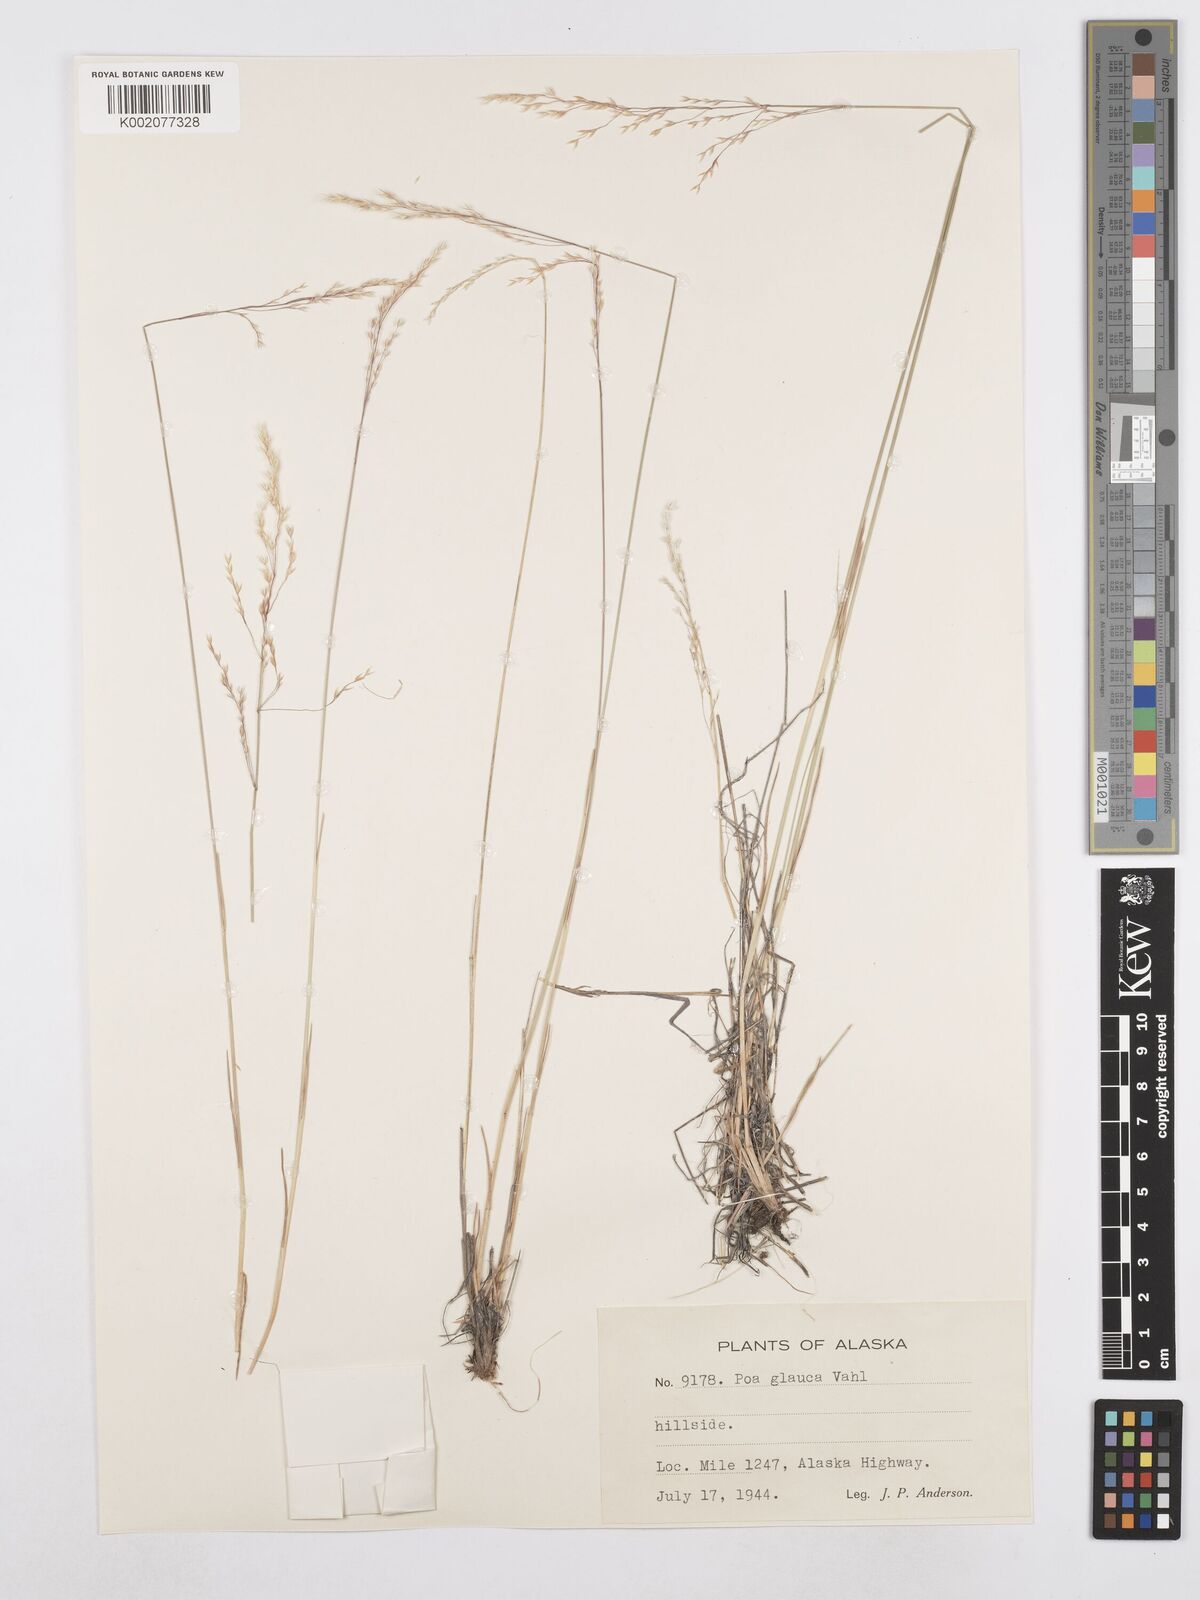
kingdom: Plantae
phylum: Tracheophyta
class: Liliopsida
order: Poales
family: Poaceae
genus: Poa
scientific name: Poa glauca
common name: Glaucous bluegrass
